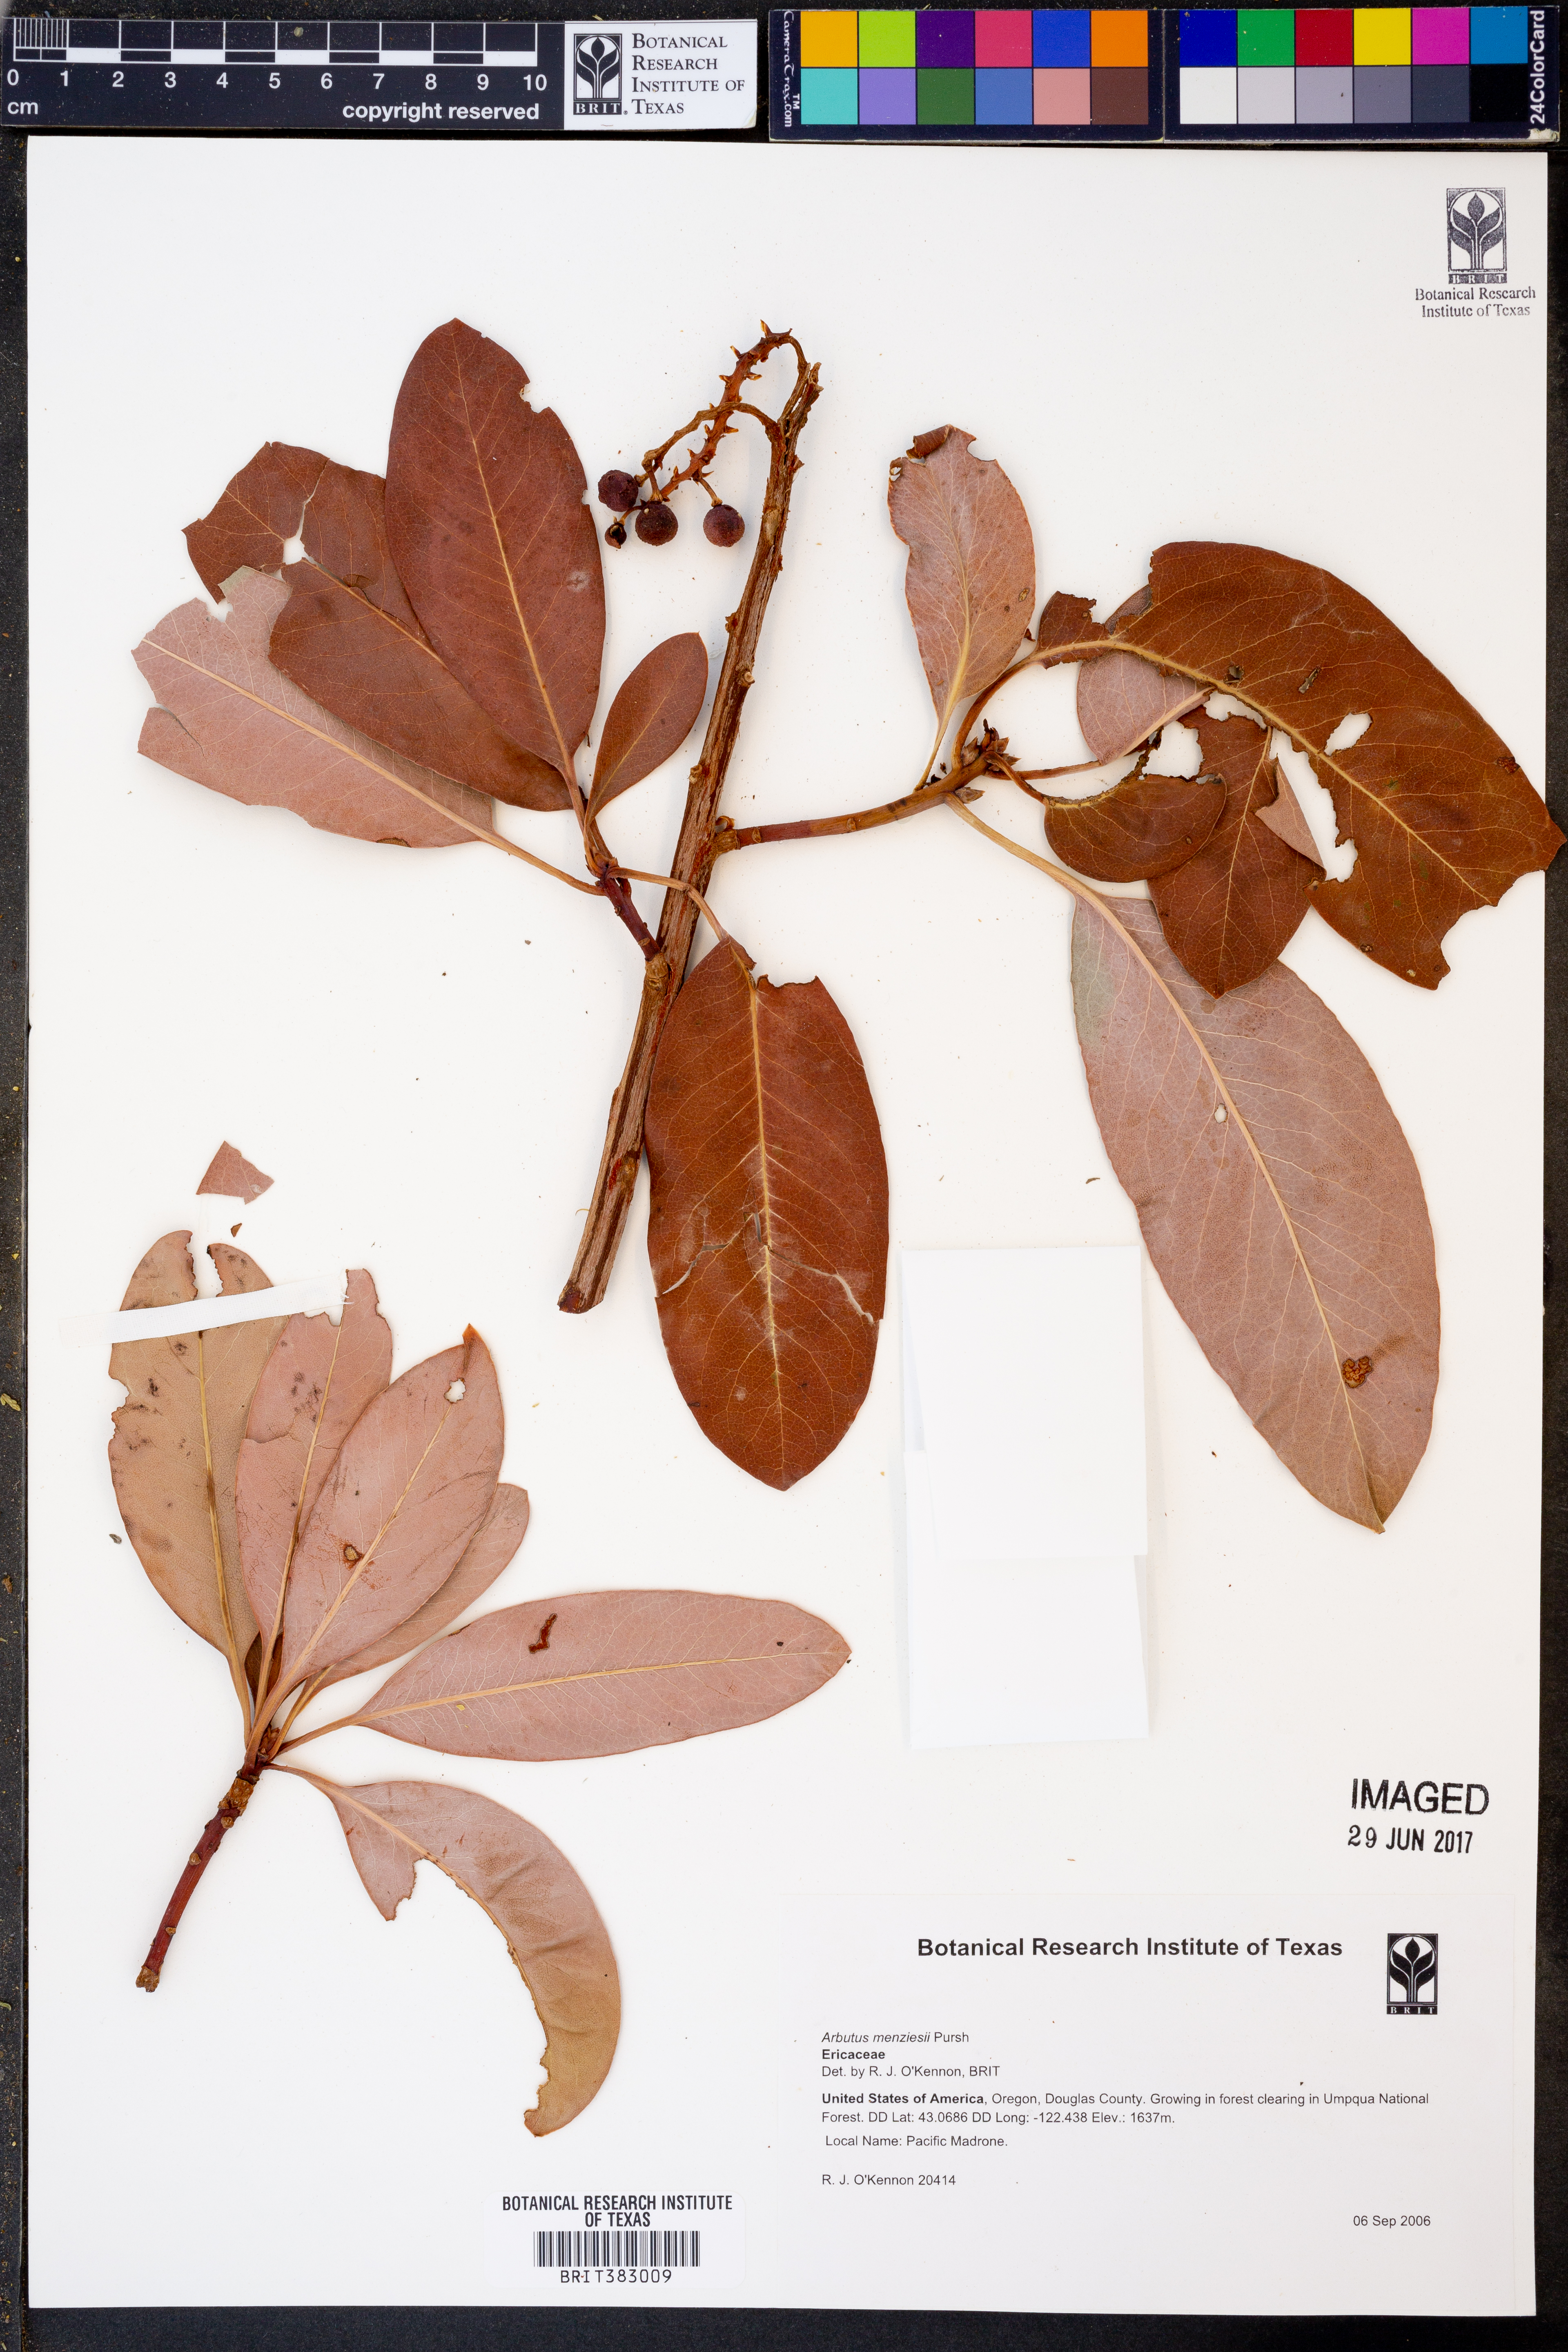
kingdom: Plantae
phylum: Tracheophyta
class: Magnoliopsida
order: Ericales
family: Ericaceae
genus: Arbutus
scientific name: Arbutus menziesii
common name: Pacific madrone
